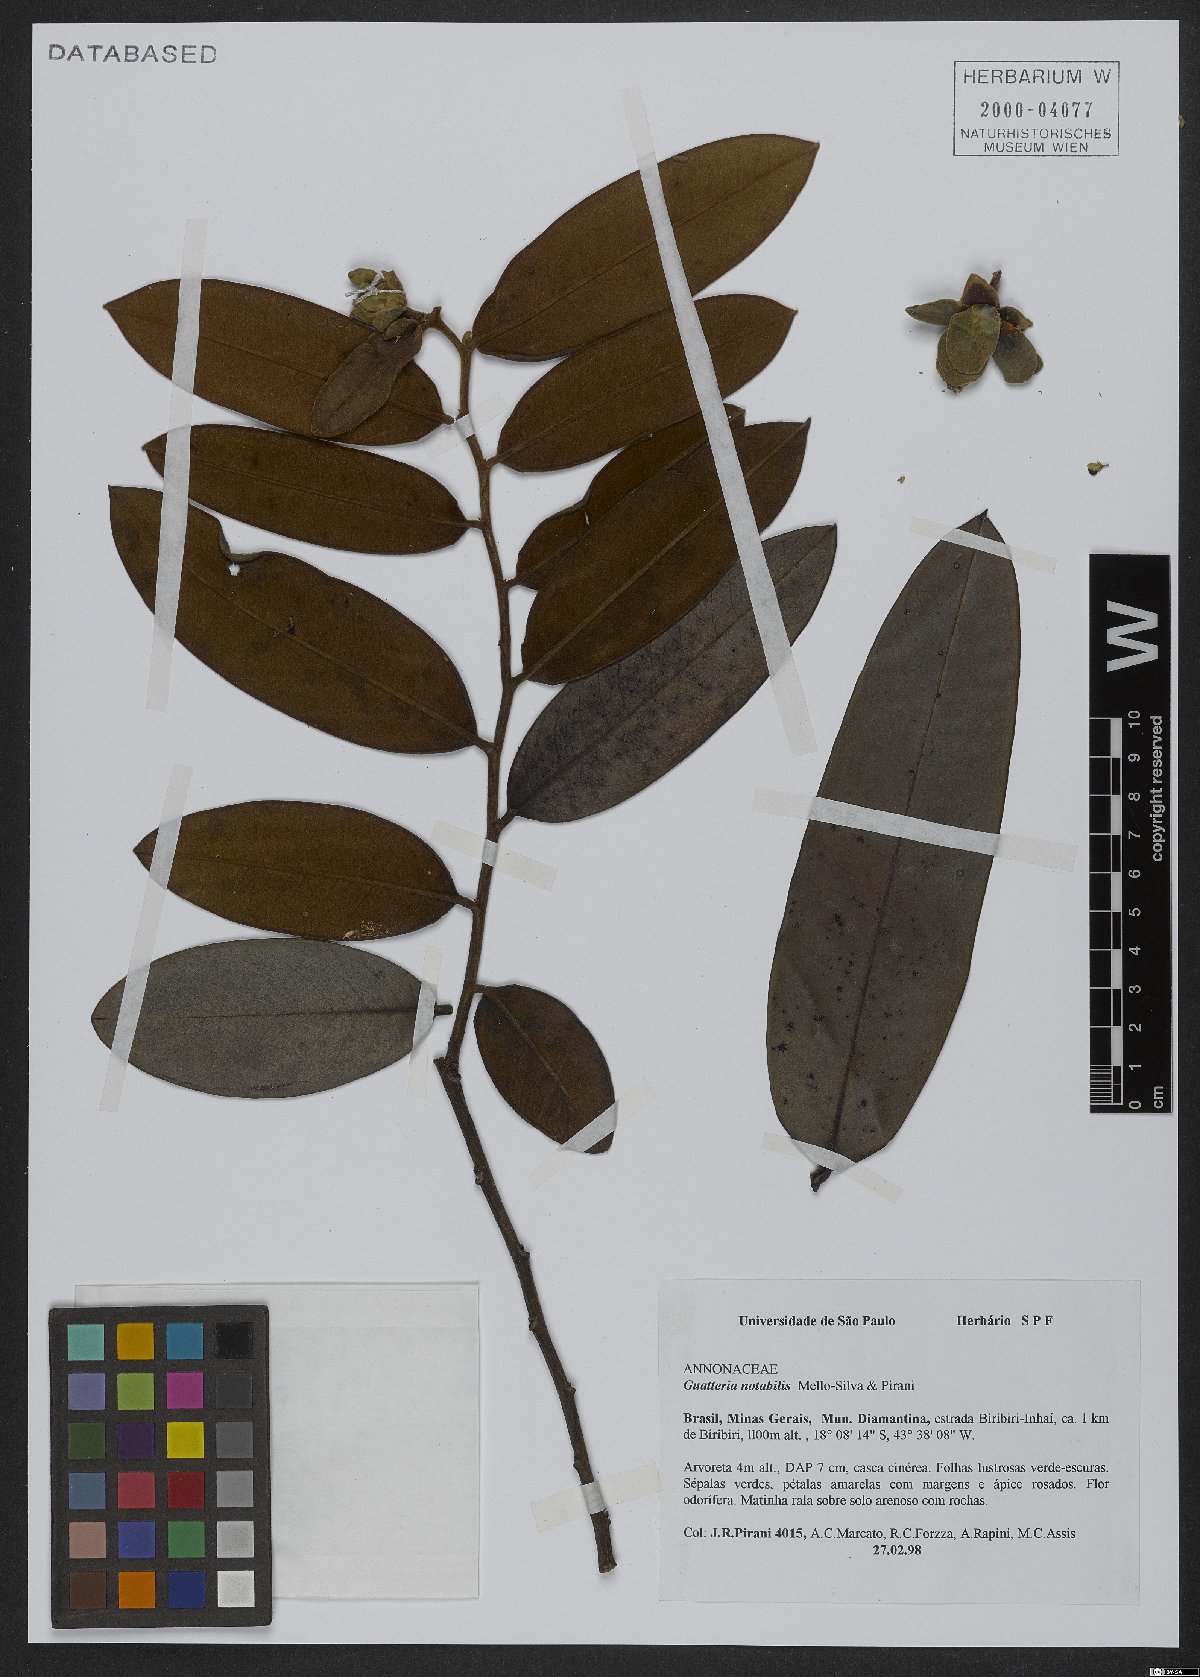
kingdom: Plantae
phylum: Tracheophyta
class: Magnoliopsida
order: Magnoliales
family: Annonaceae
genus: Guatteria
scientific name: Guatteria notabilis
